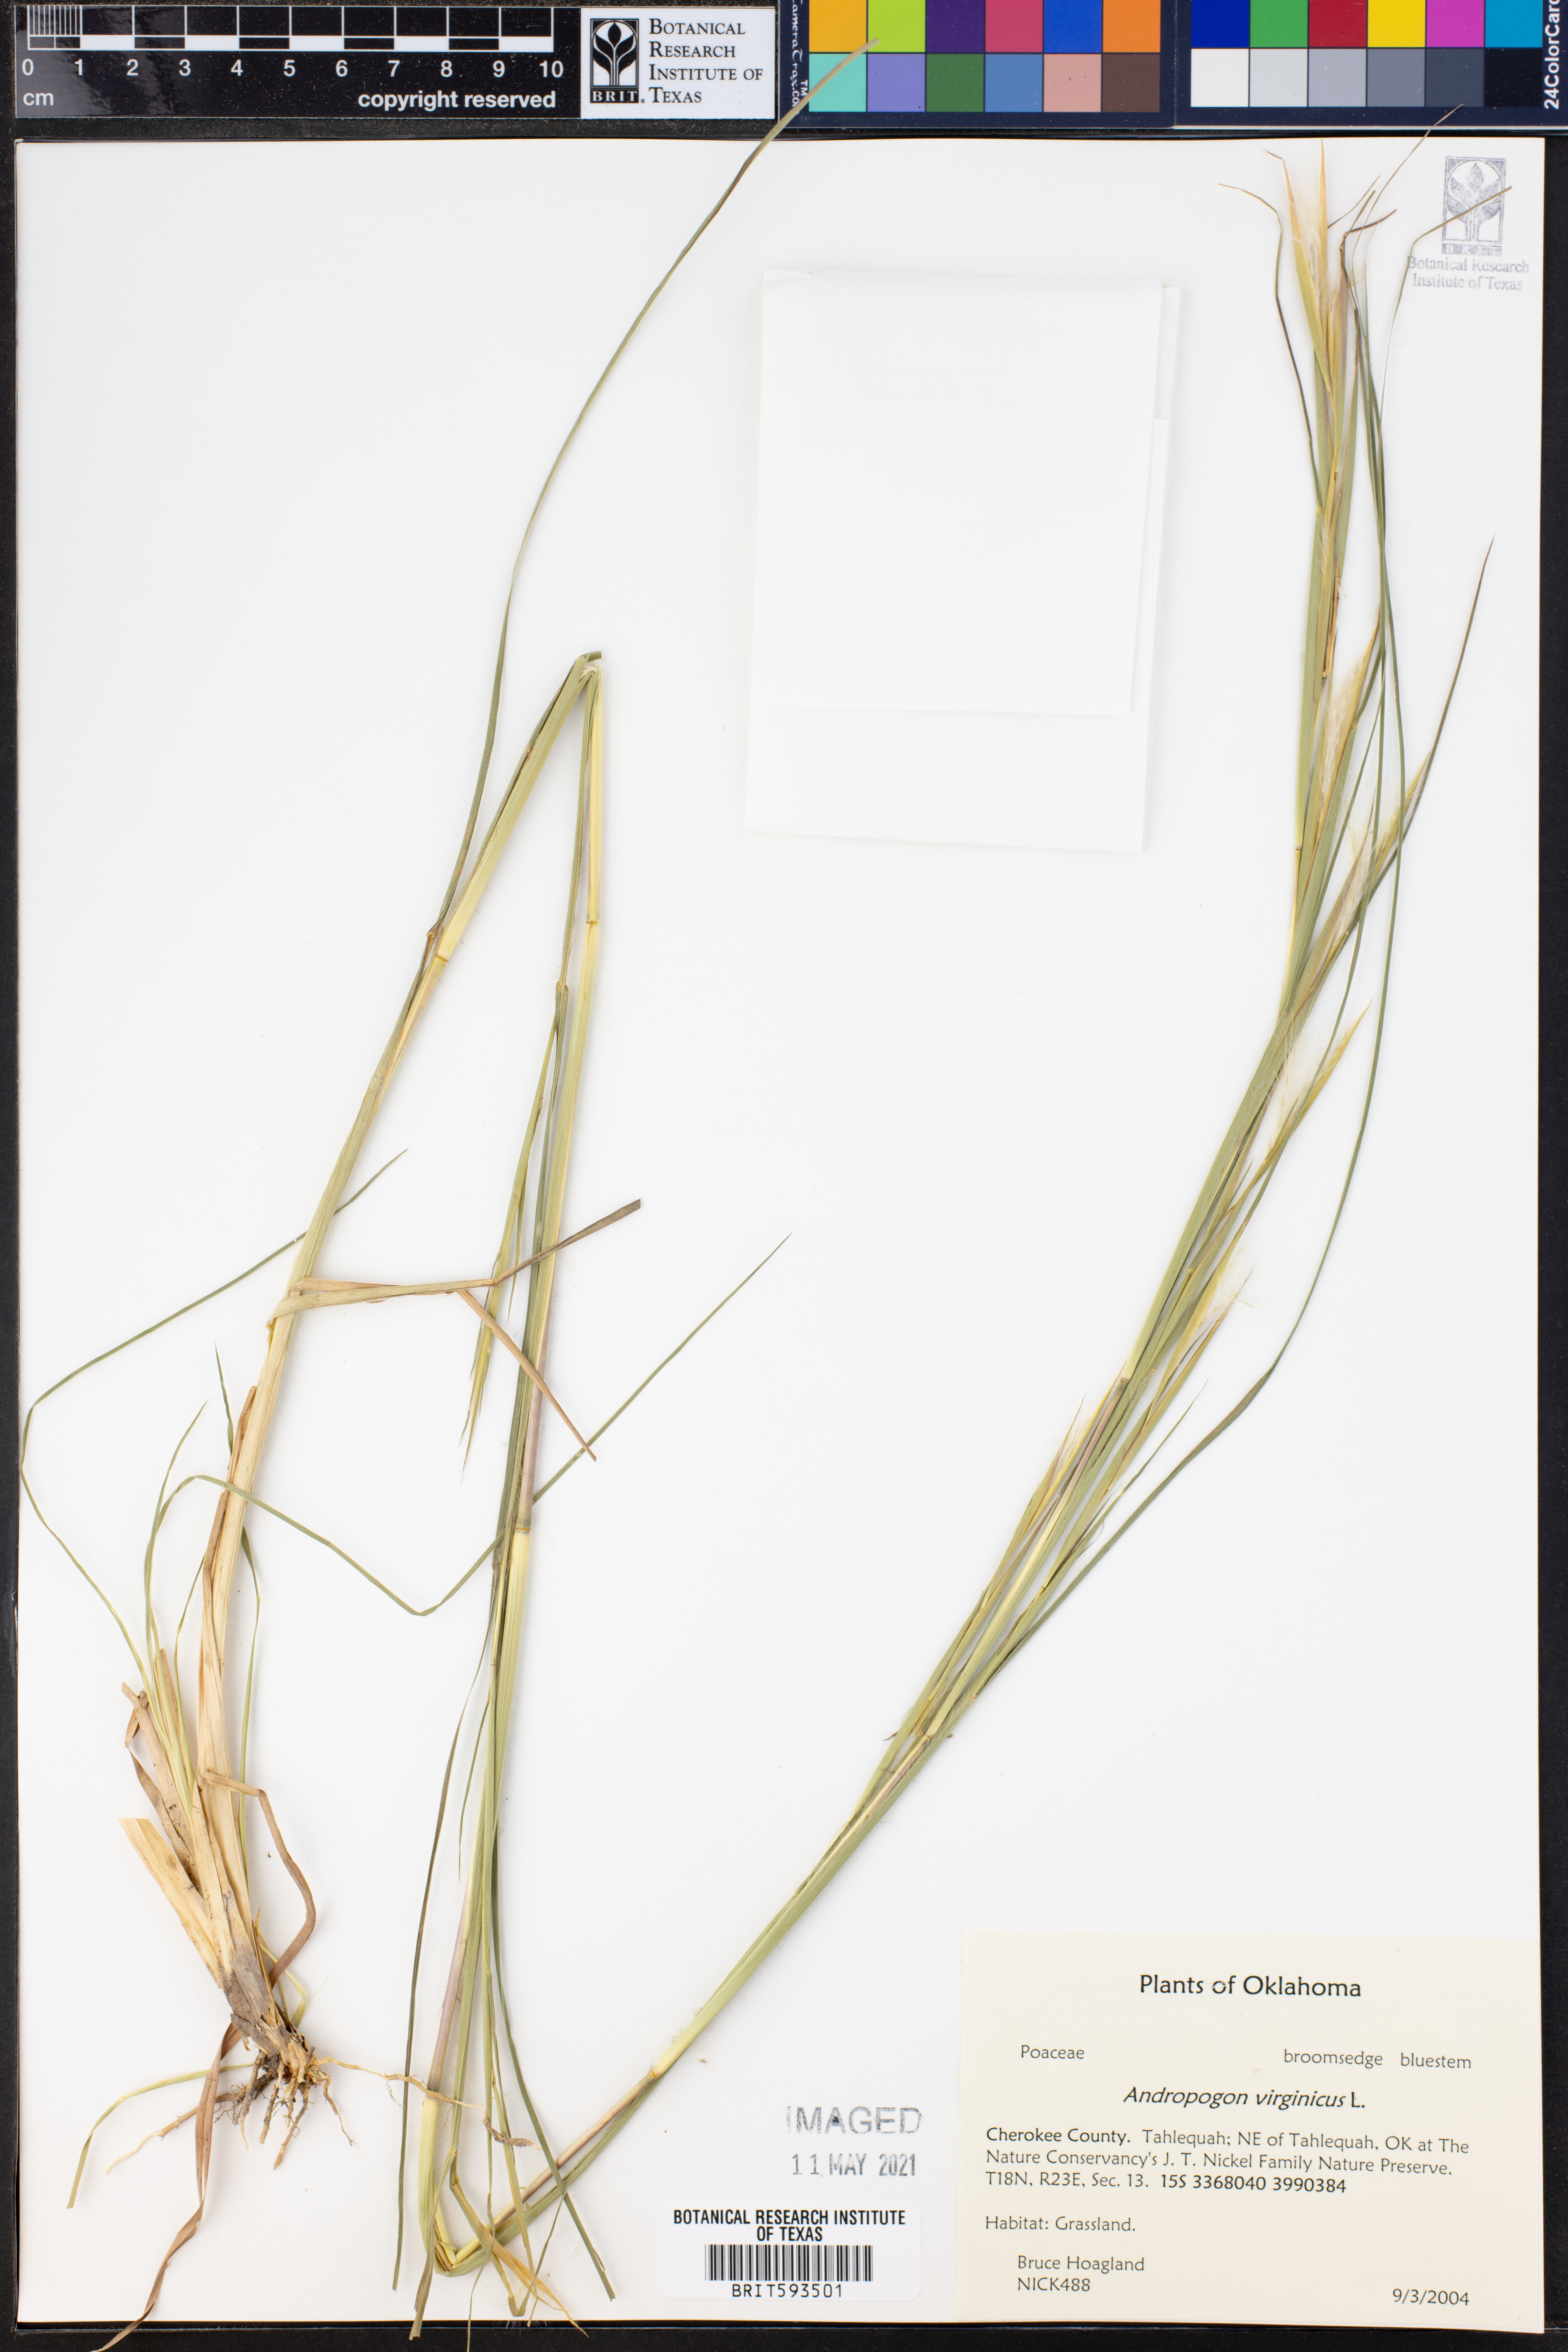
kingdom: Plantae
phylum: Tracheophyta
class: Liliopsida
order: Poales
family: Poaceae
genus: Andropogon
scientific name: Andropogon virginicus
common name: Broomsedge bluestem
